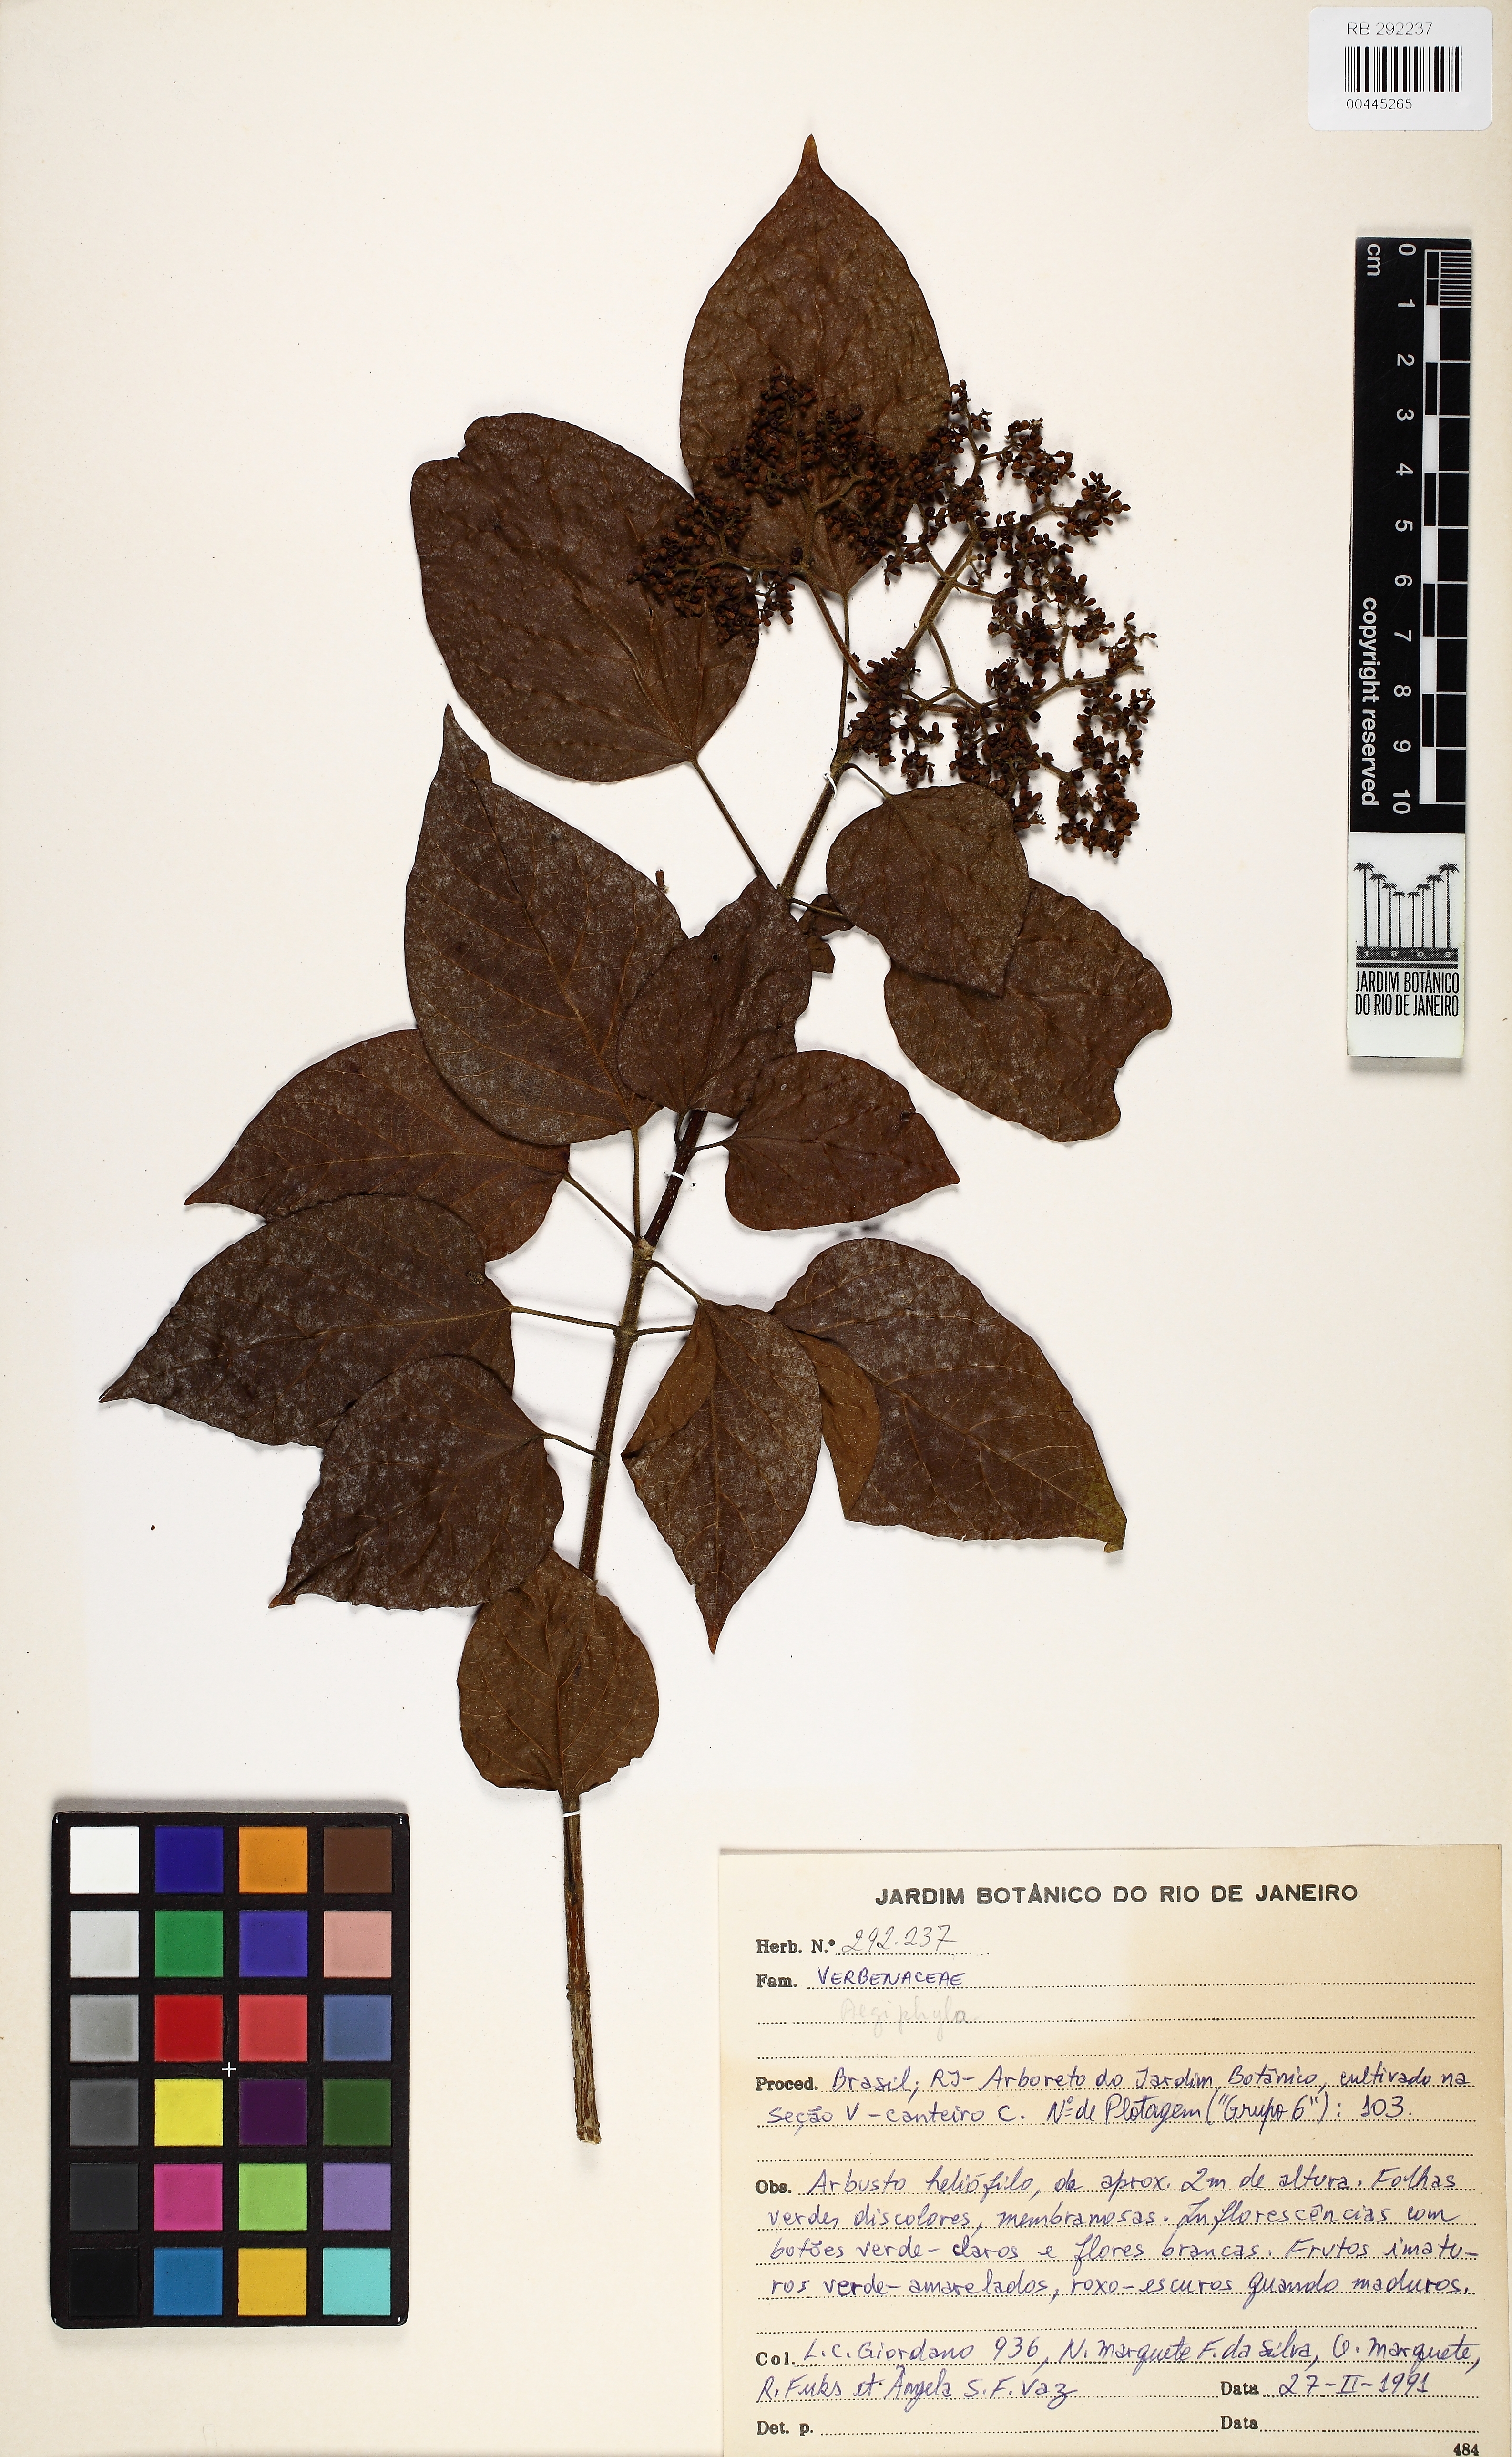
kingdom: Plantae
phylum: Tracheophyta
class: Magnoliopsida
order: Lamiales
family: Lamiaceae
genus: Aegiphila
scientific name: Aegiphila
